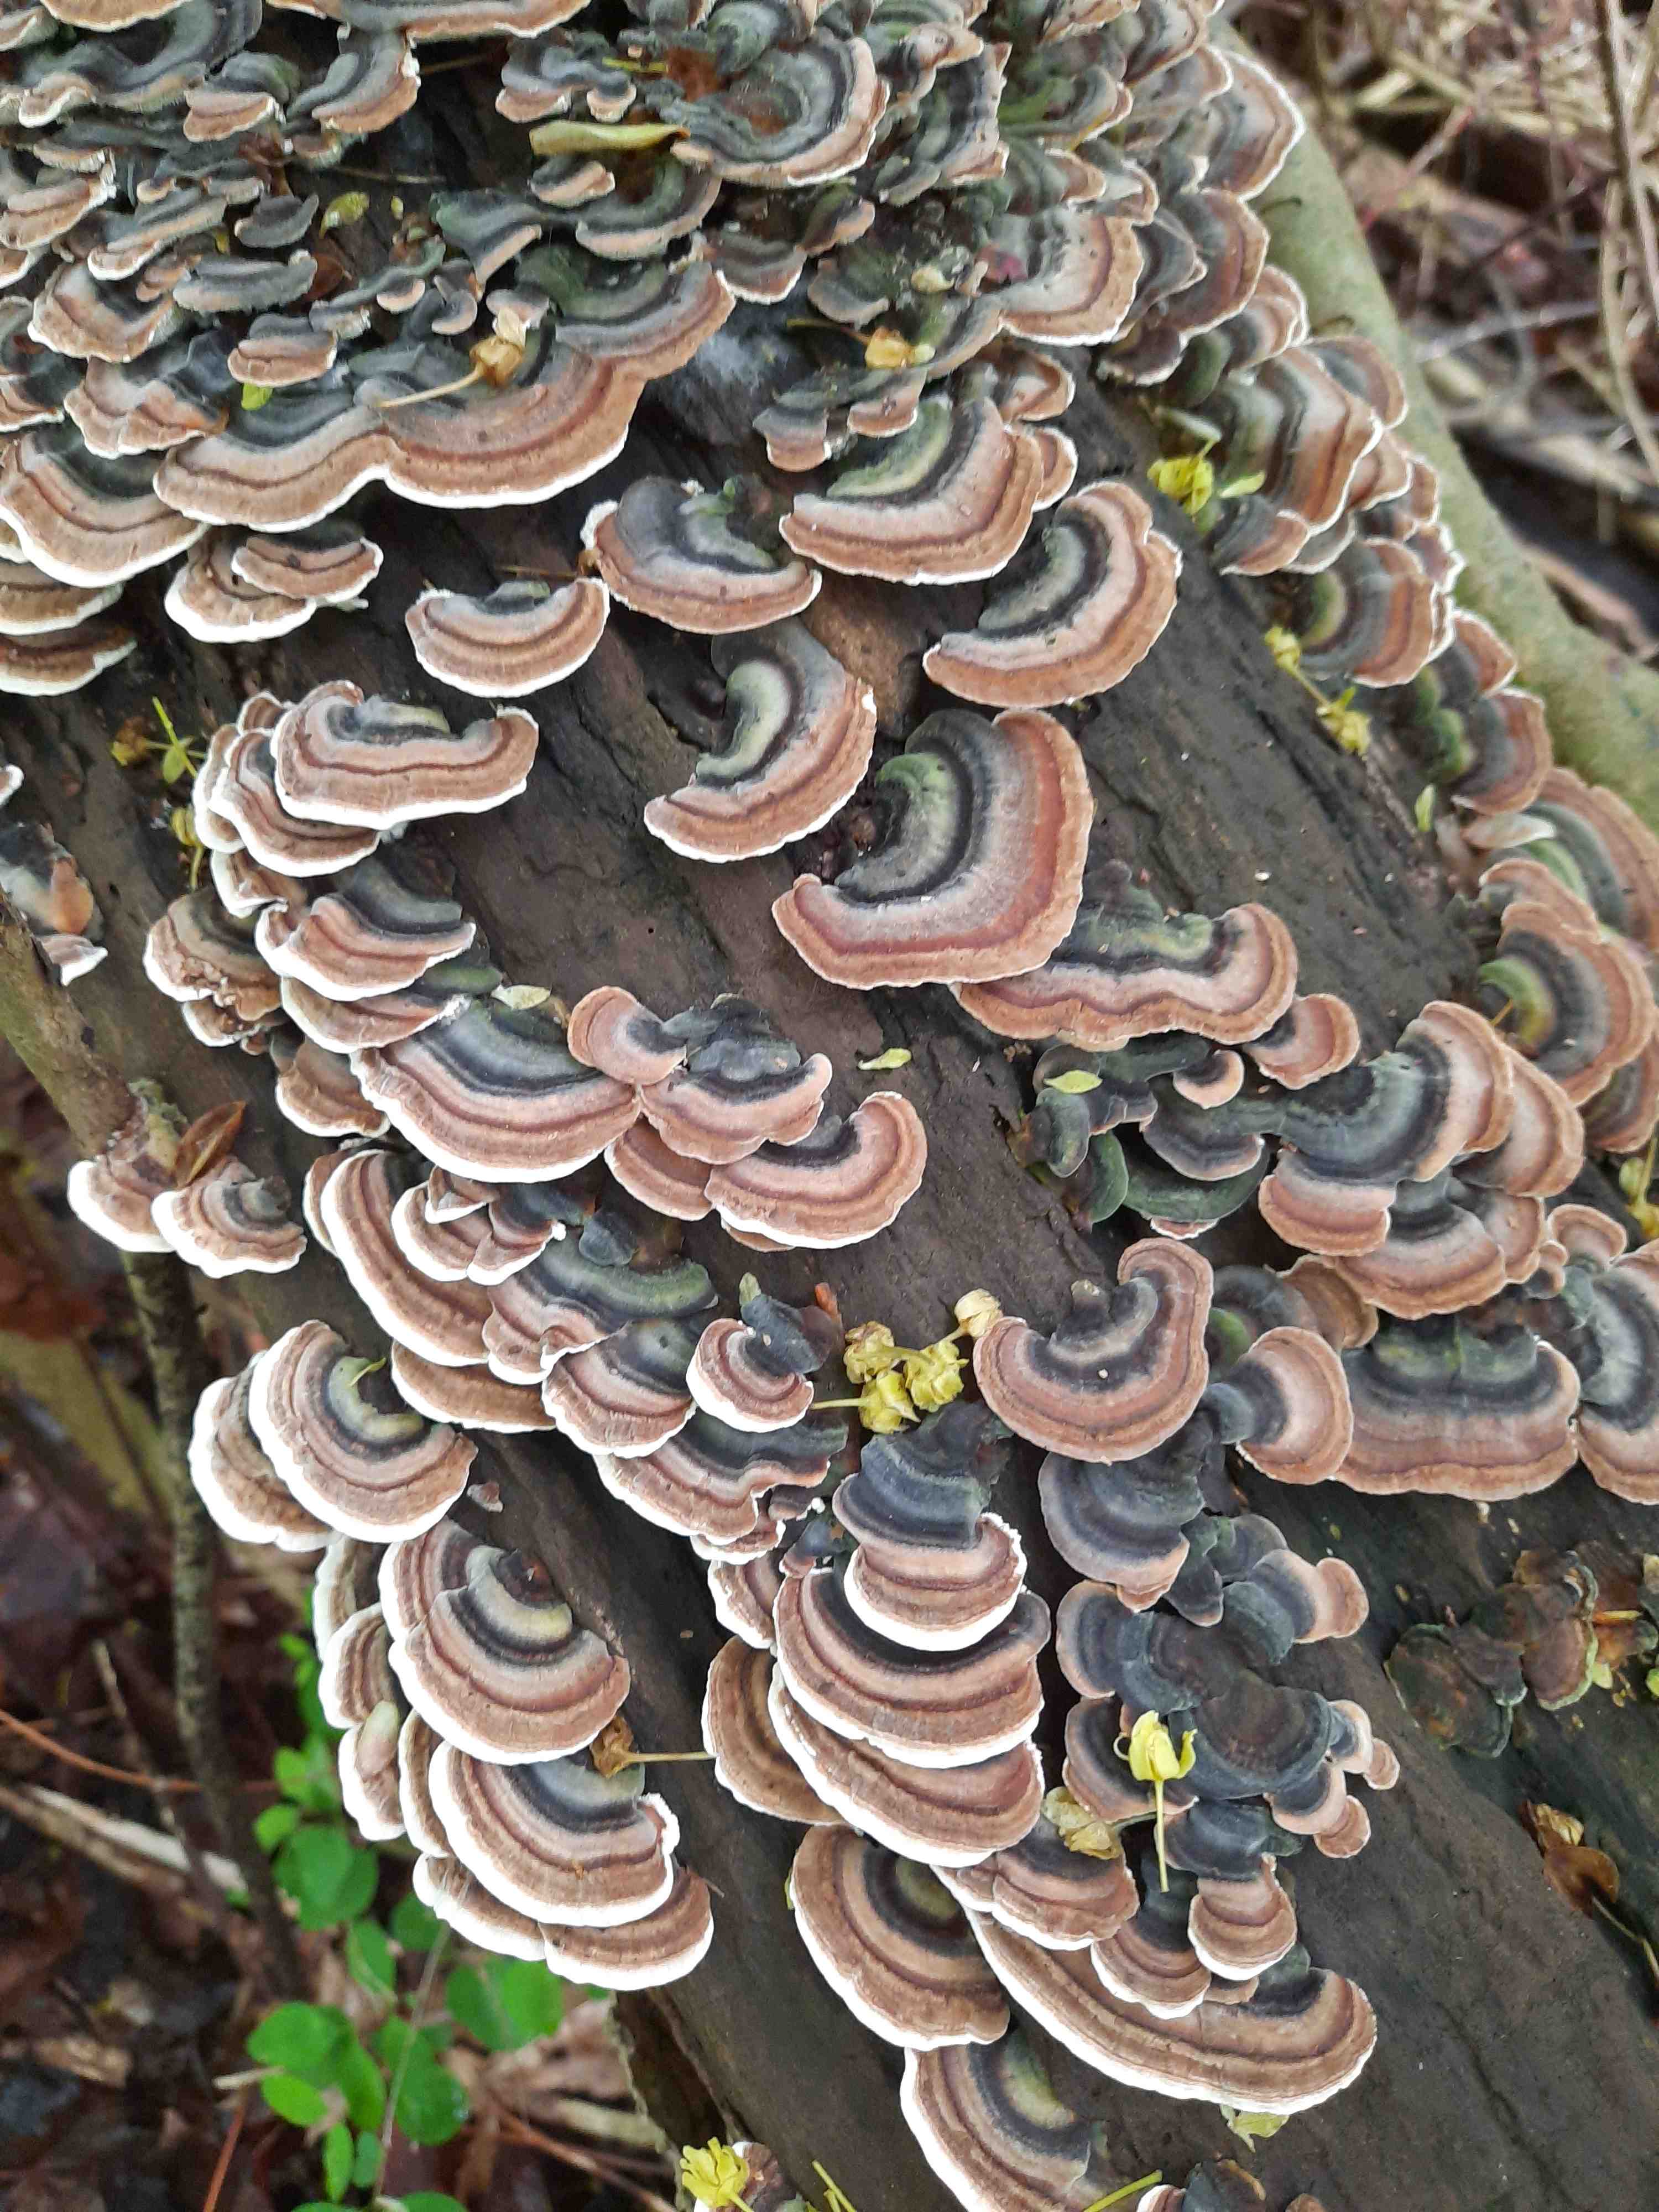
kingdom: Fungi
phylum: Basidiomycota
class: Agaricomycetes
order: Polyporales
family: Polyporaceae
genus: Trametes
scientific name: Trametes versicolor
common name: broget læderporesvamp
